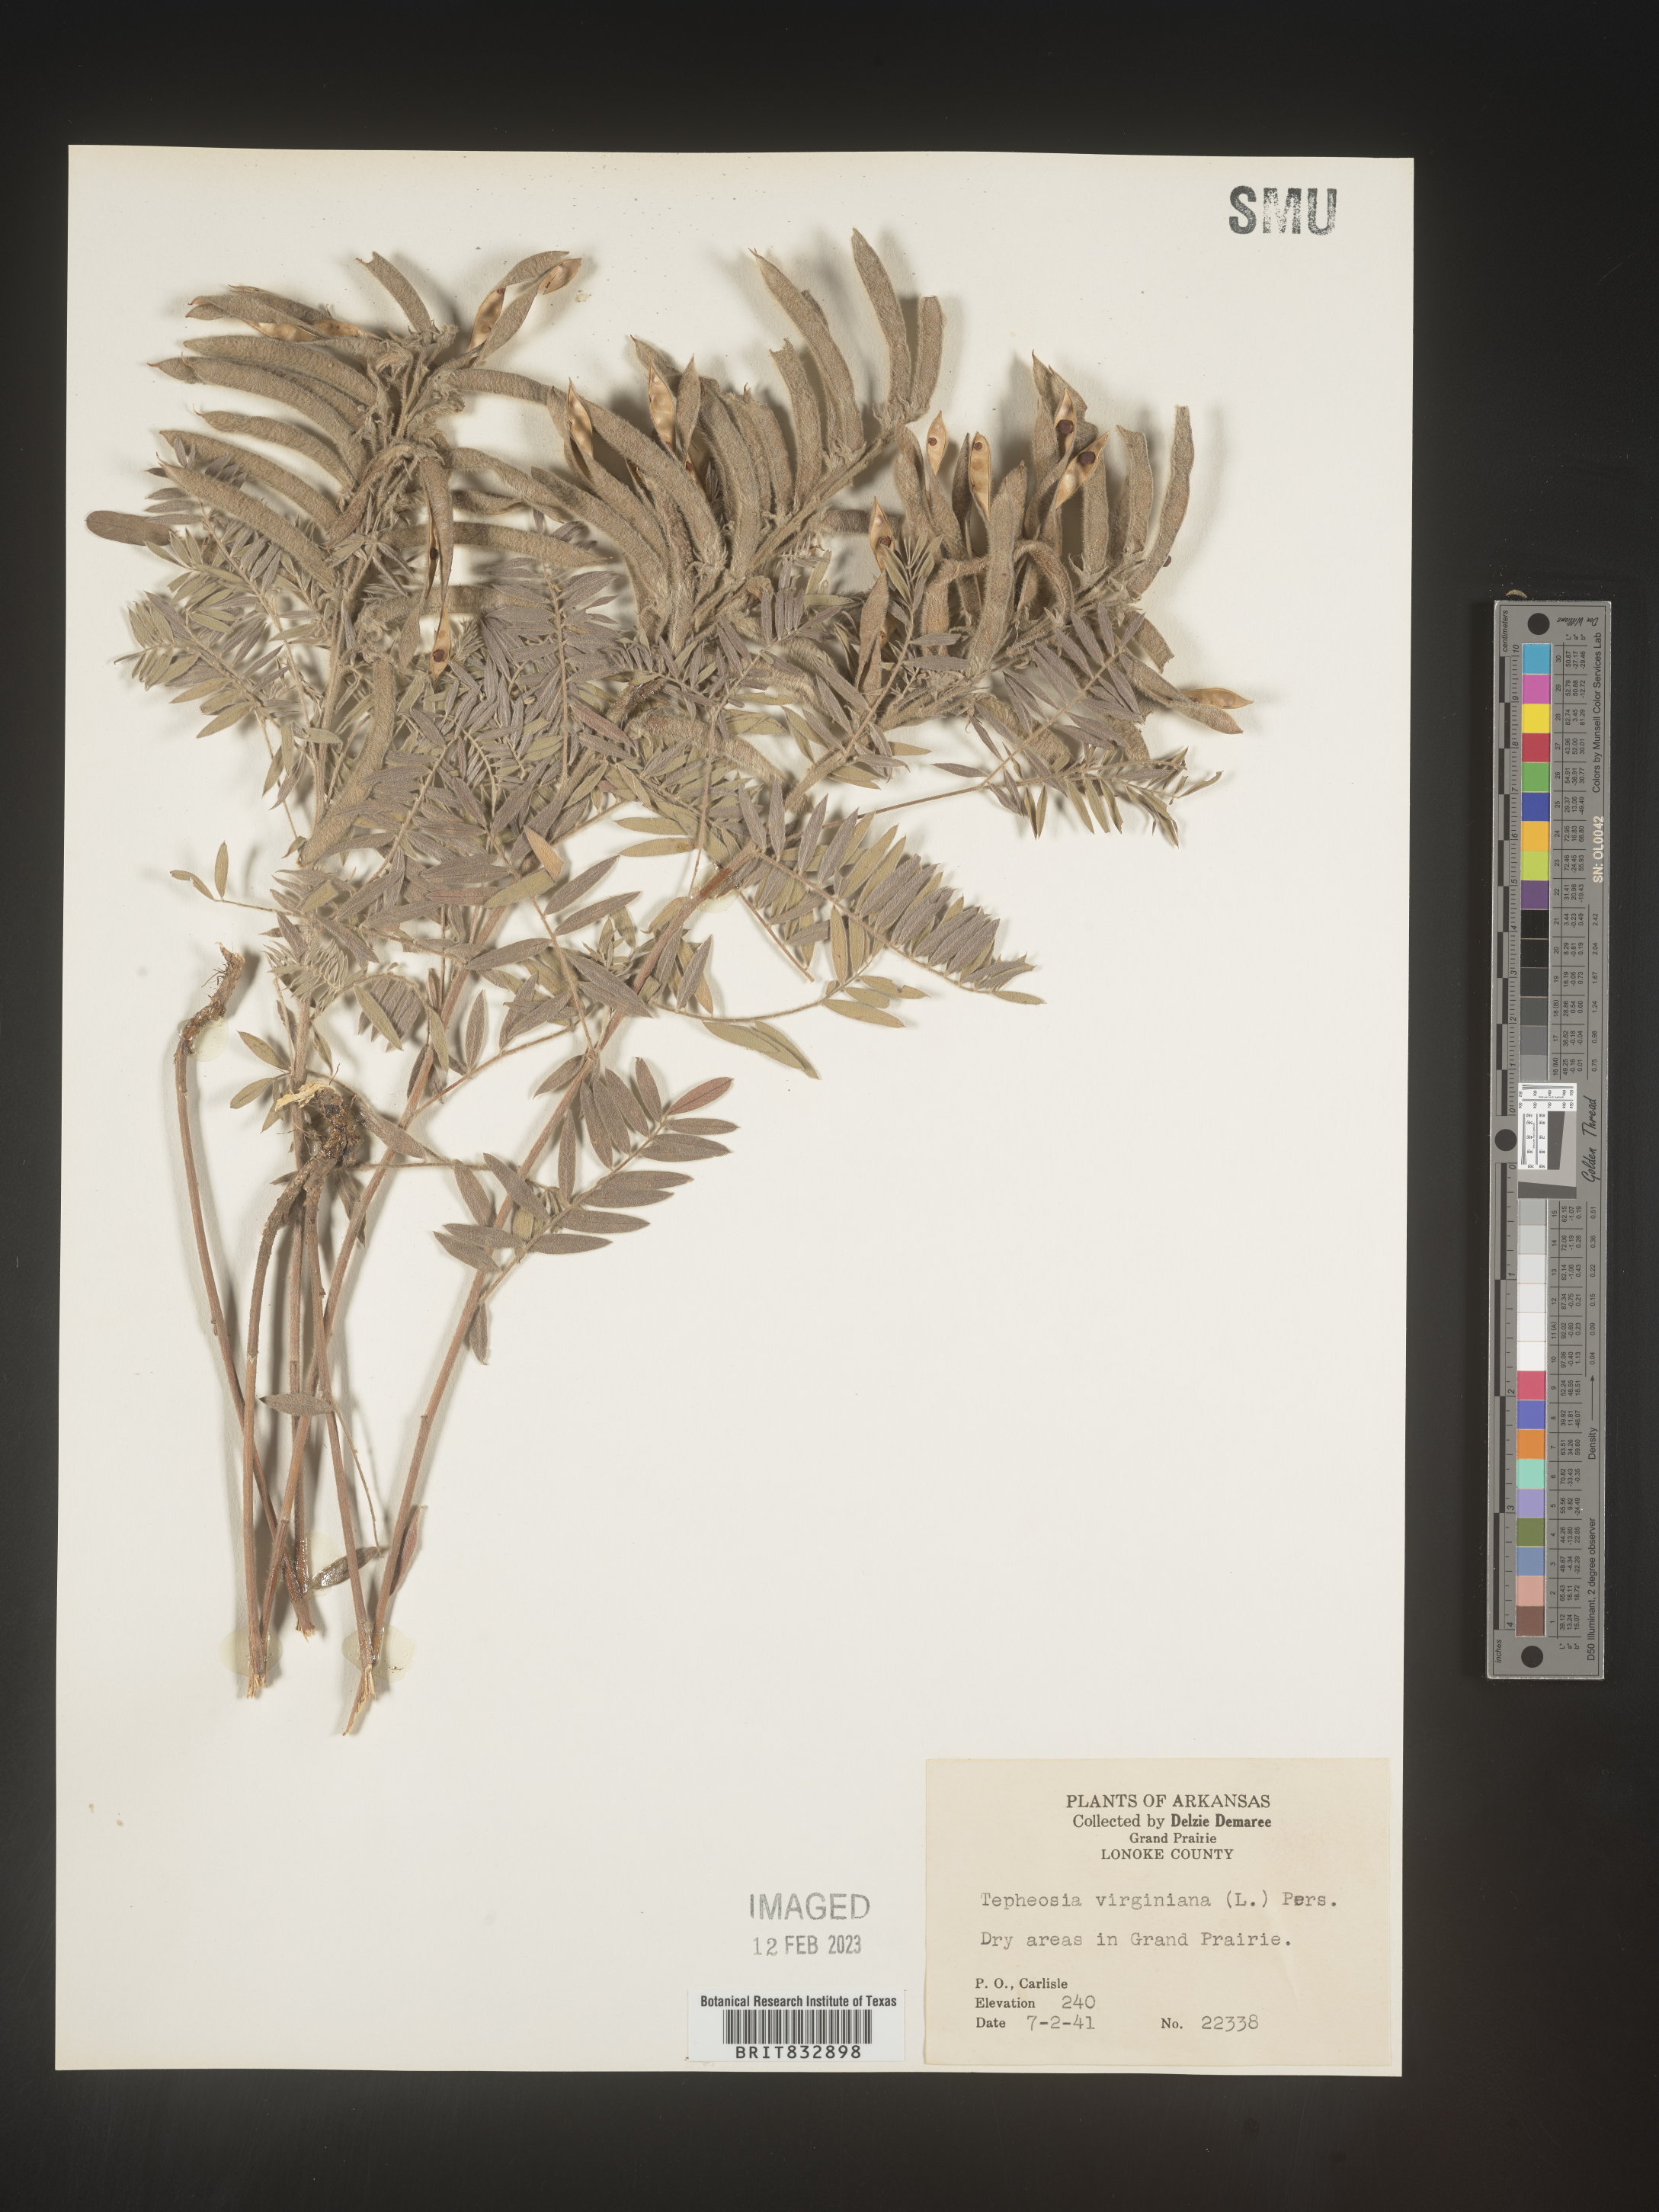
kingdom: Plantae
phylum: Tracheophyta
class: Magnoliopsida
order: Fabales
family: Fabaceae
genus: Tephrosia
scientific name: Tephrosia virginiana
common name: Rabbit-pea
